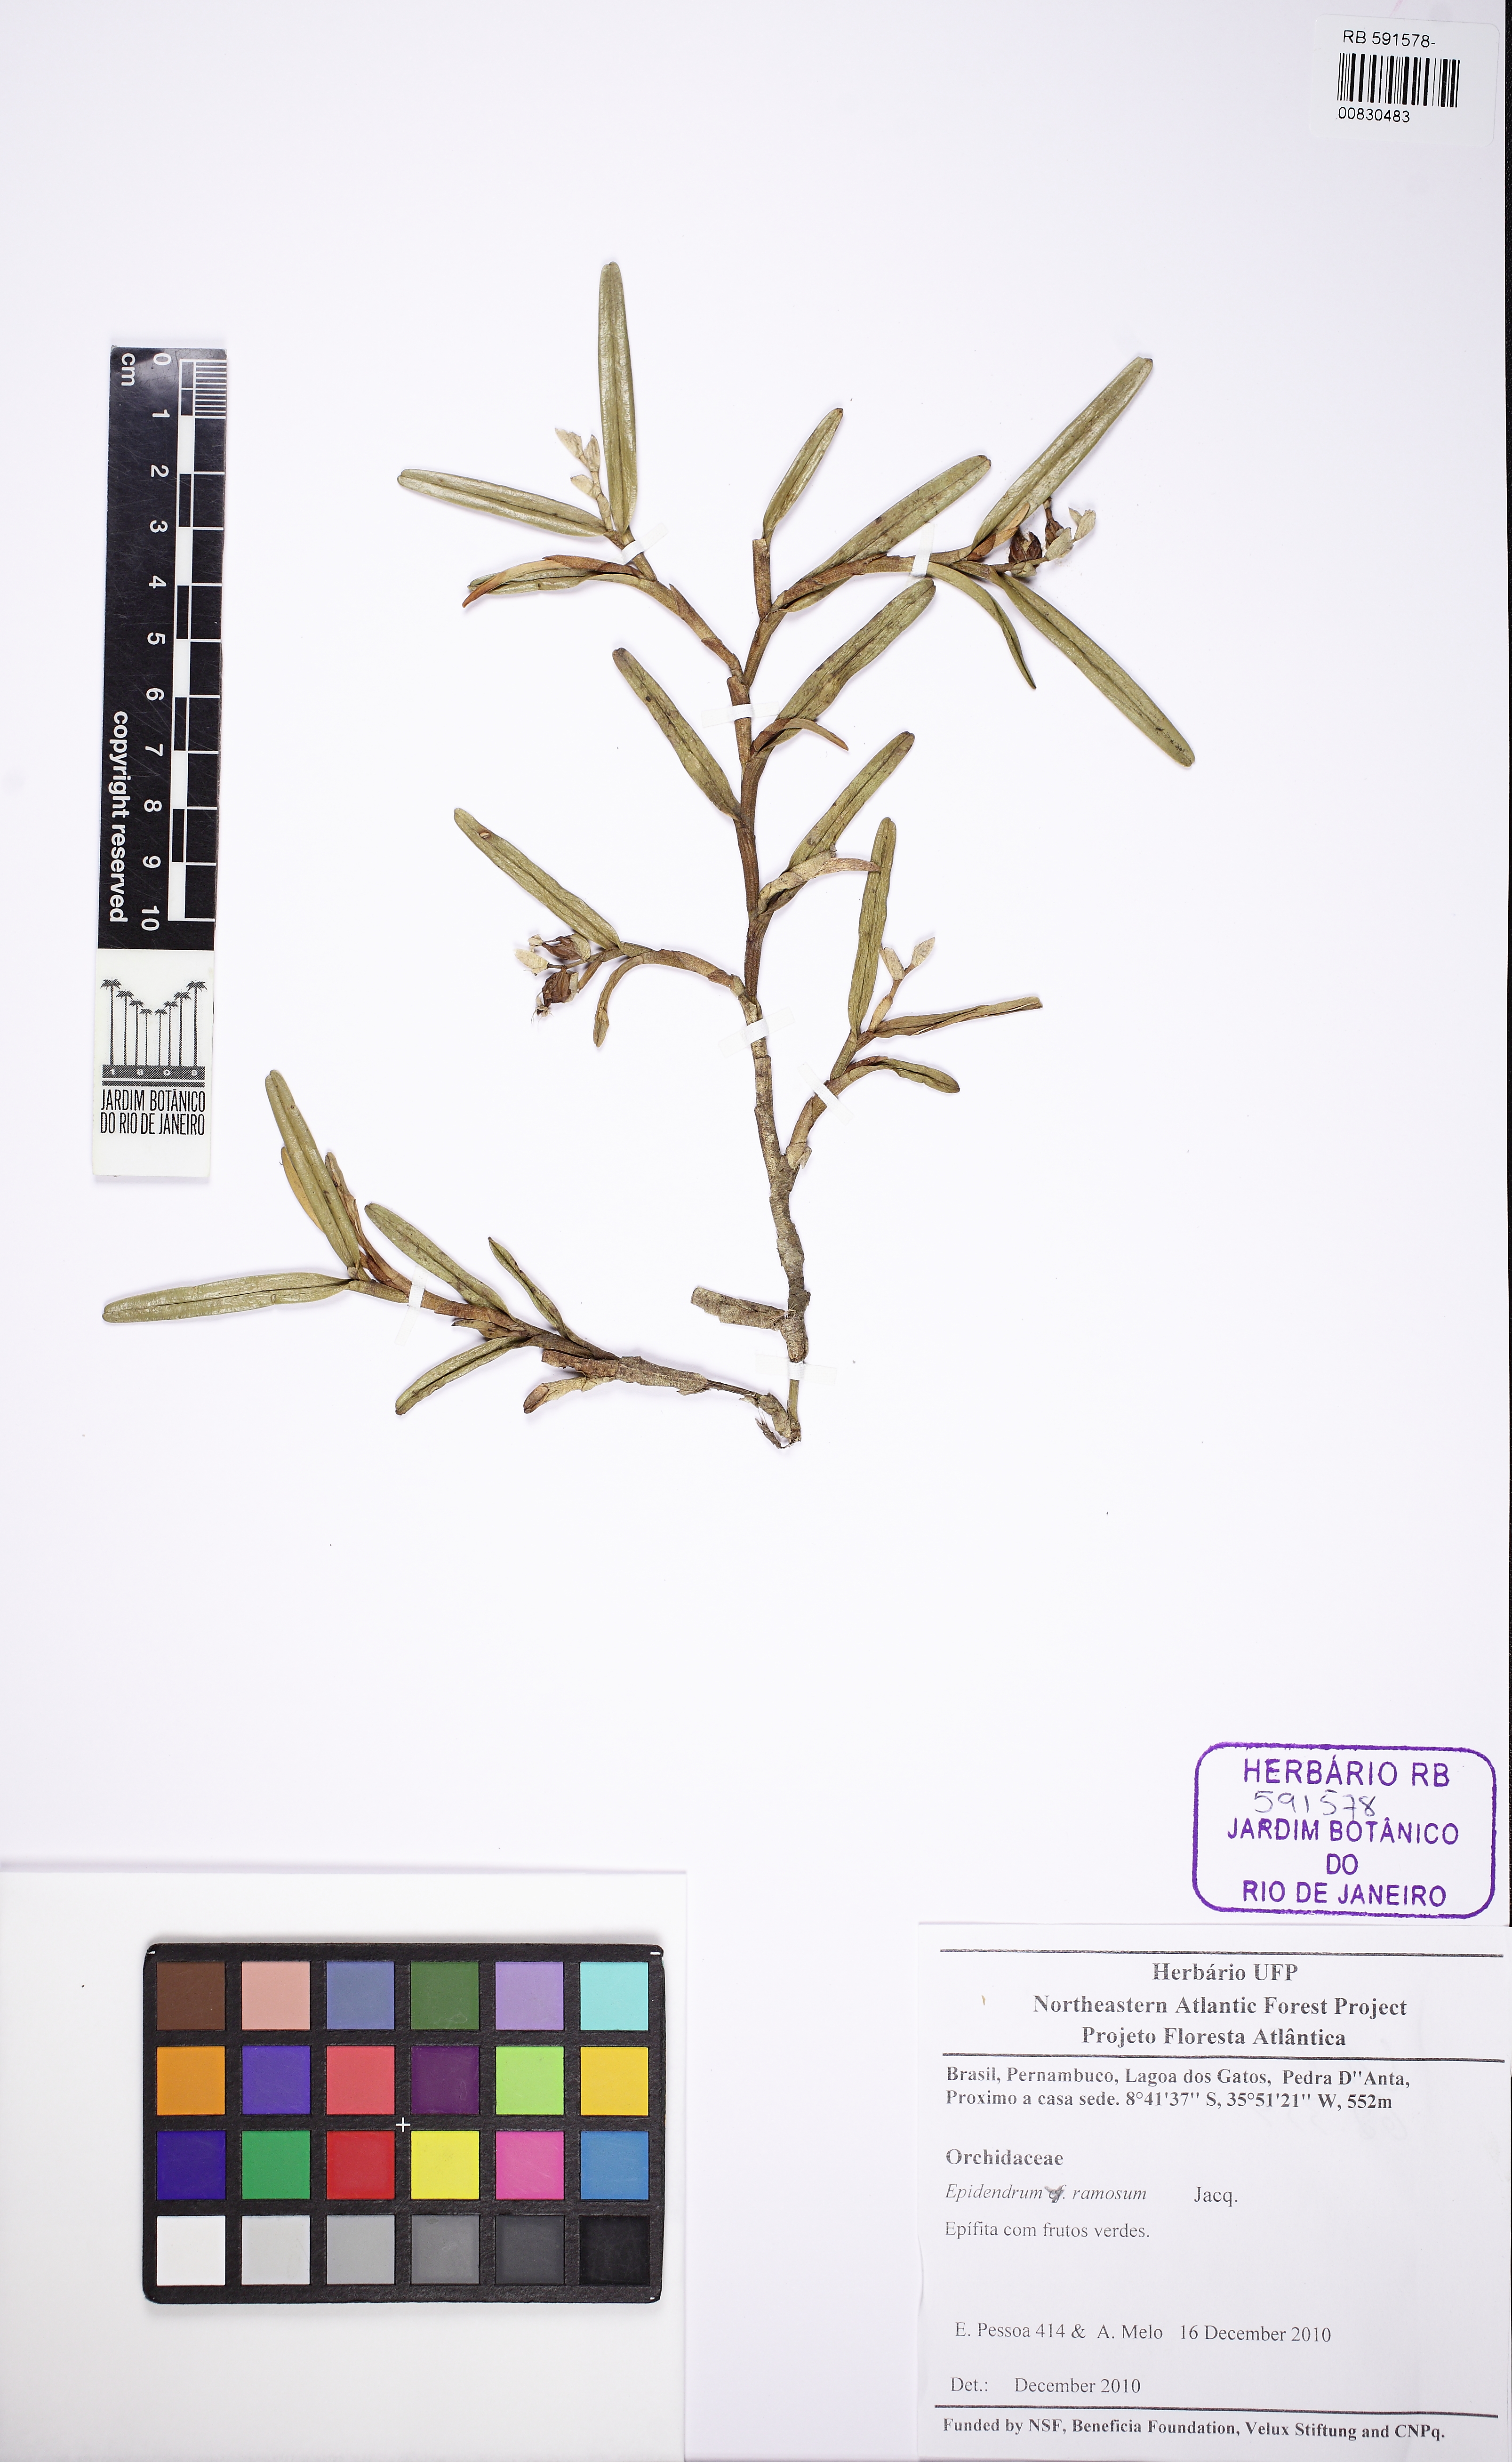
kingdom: Plantae
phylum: Tracheophyta
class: Liliopsida
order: Asparagales
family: Orchidaceae
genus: Epidendrum
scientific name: Epidendrum ramosum
